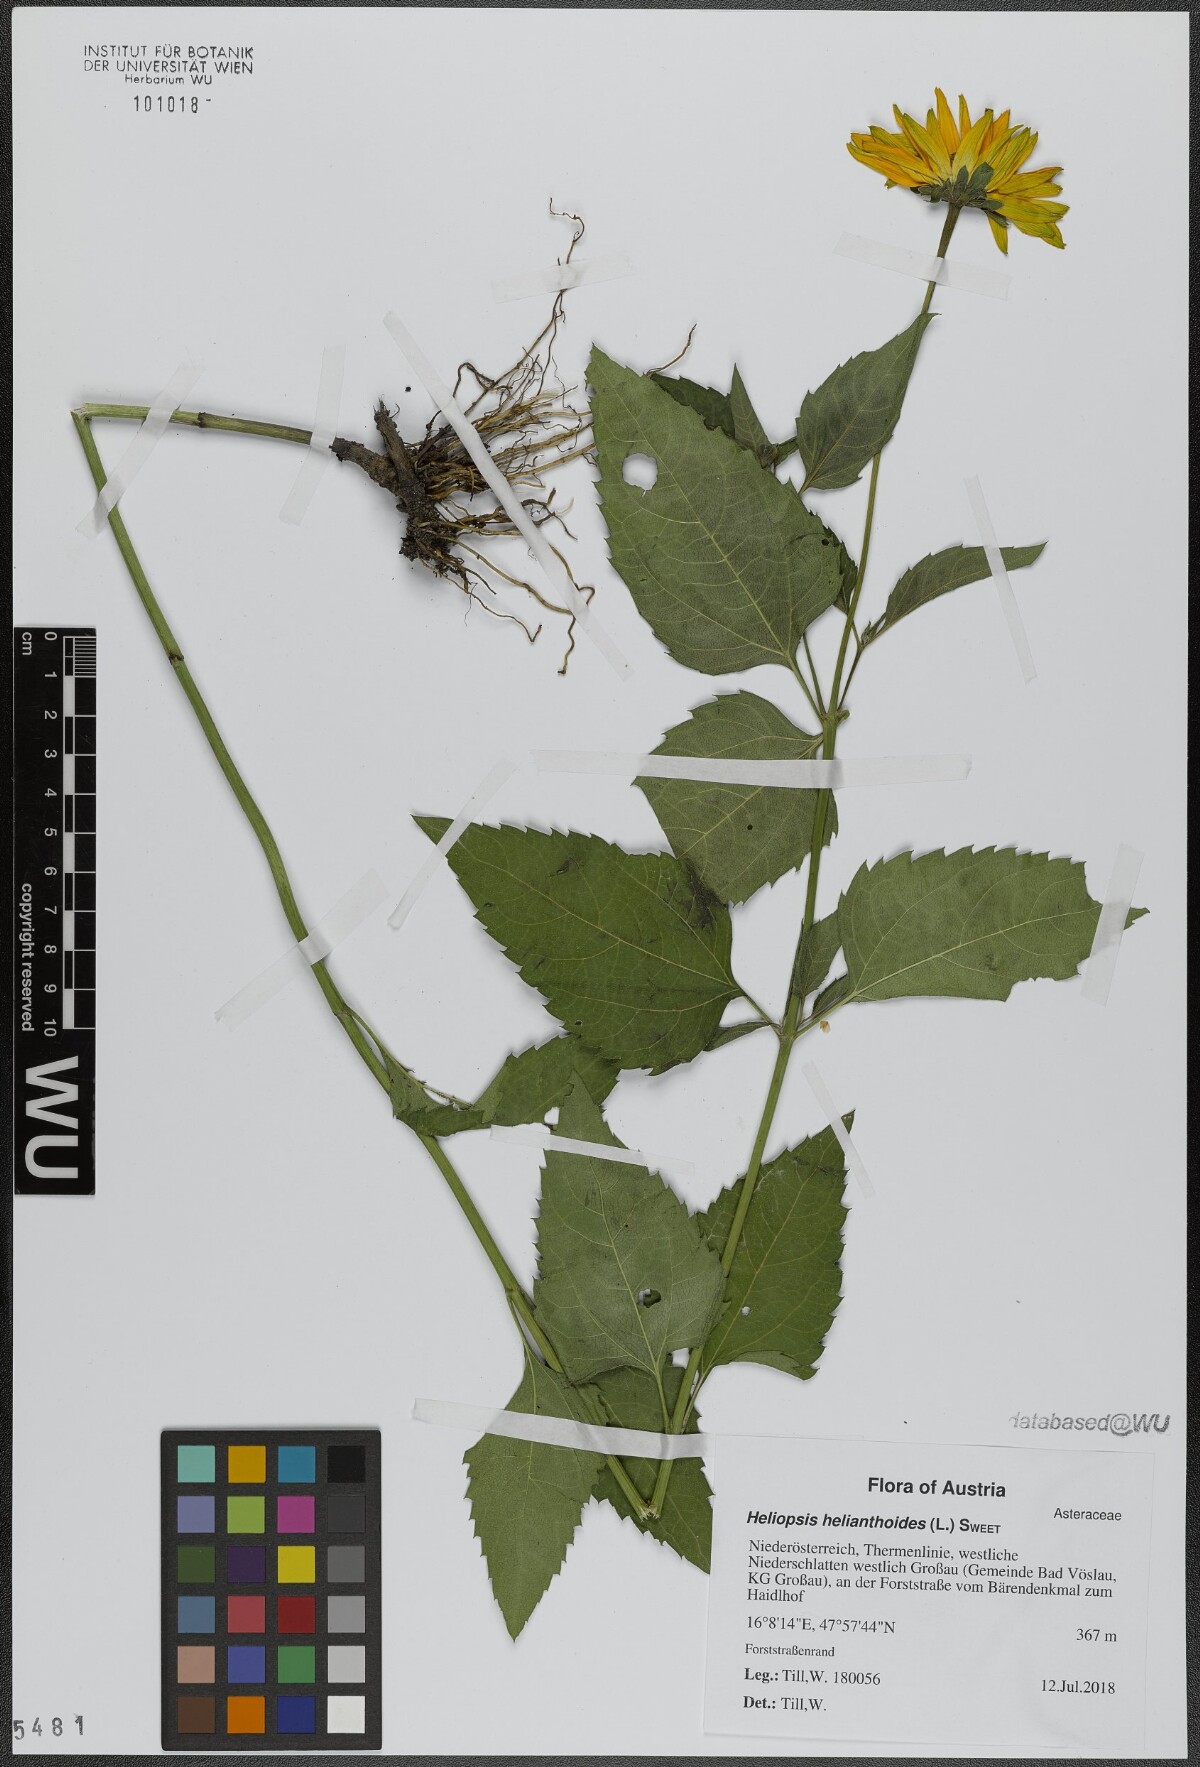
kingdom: Plantae
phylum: Tracheophyta
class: Magnoliopsida
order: Asterales
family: Asteraceae
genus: Heliopsis
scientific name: Heliopsis helianthoides
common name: False sunflower
